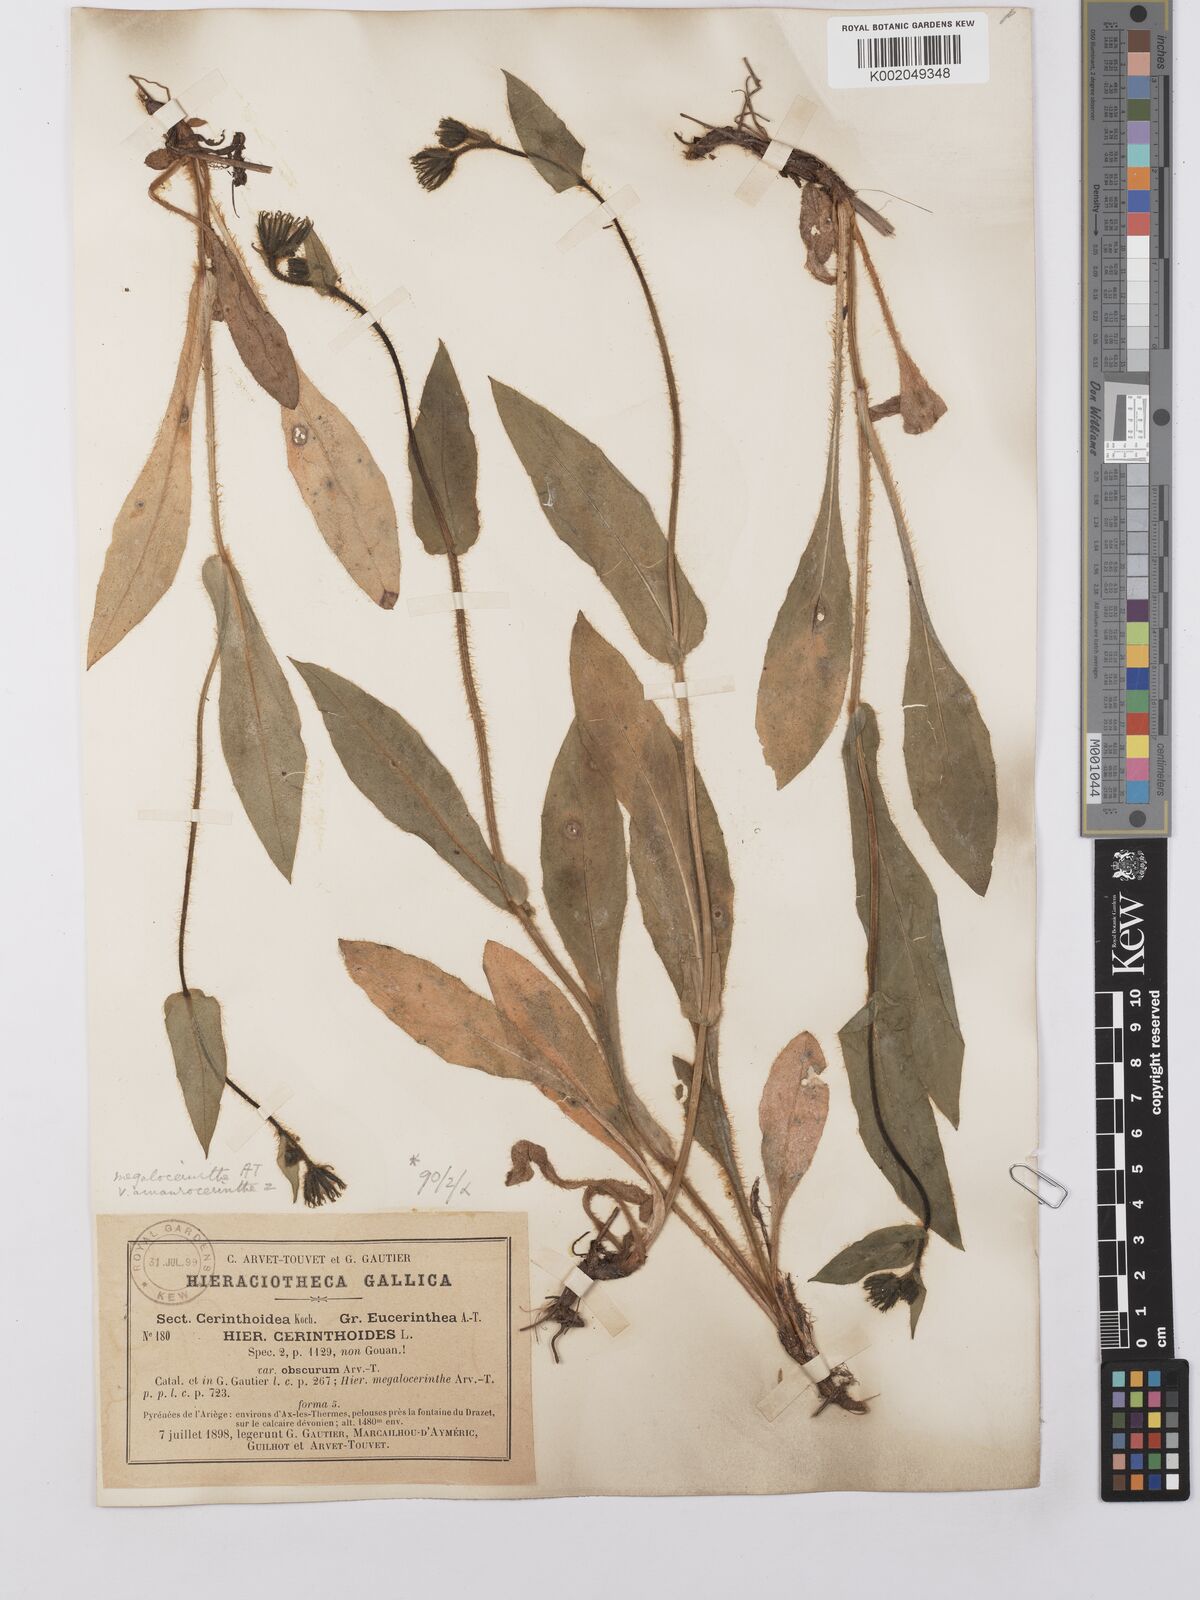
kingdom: Plantae
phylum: Tracheophyta
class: Magnoliopsida
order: Asterales
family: Asteraceae
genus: Hieracium
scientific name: Hieracium cerinthoides
